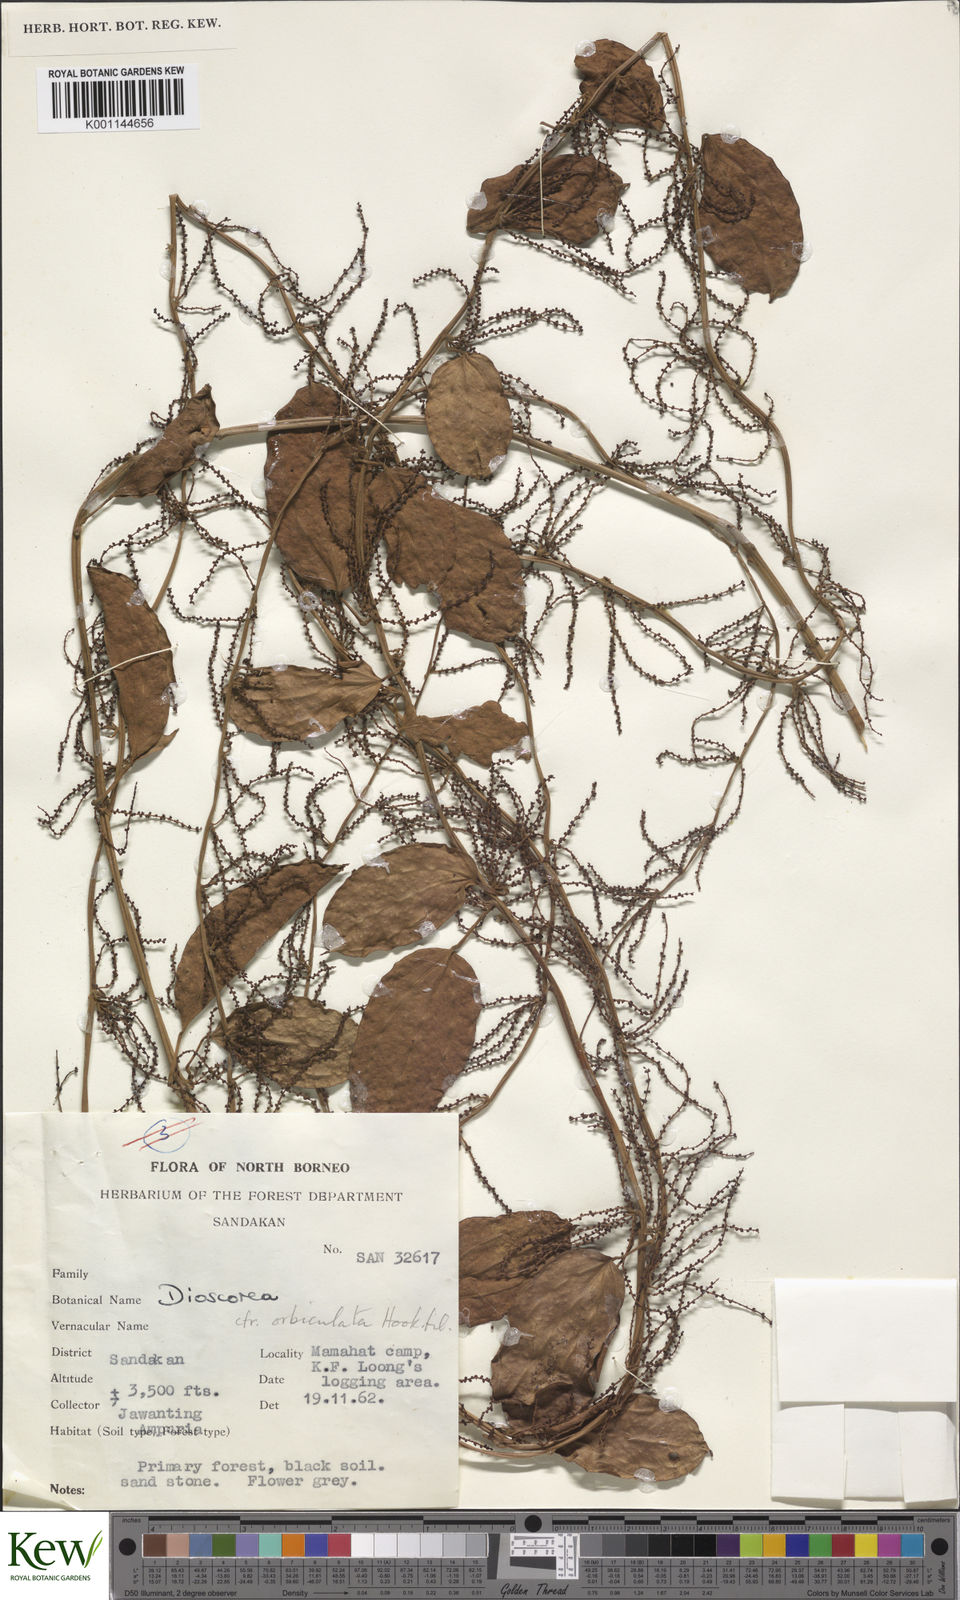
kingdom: Plantae
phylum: Tracheophyta
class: Liliopsida
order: Dioscoreales
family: Dioscoreaceae
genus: Dioscorea
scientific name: Dioscorea orbiculata
